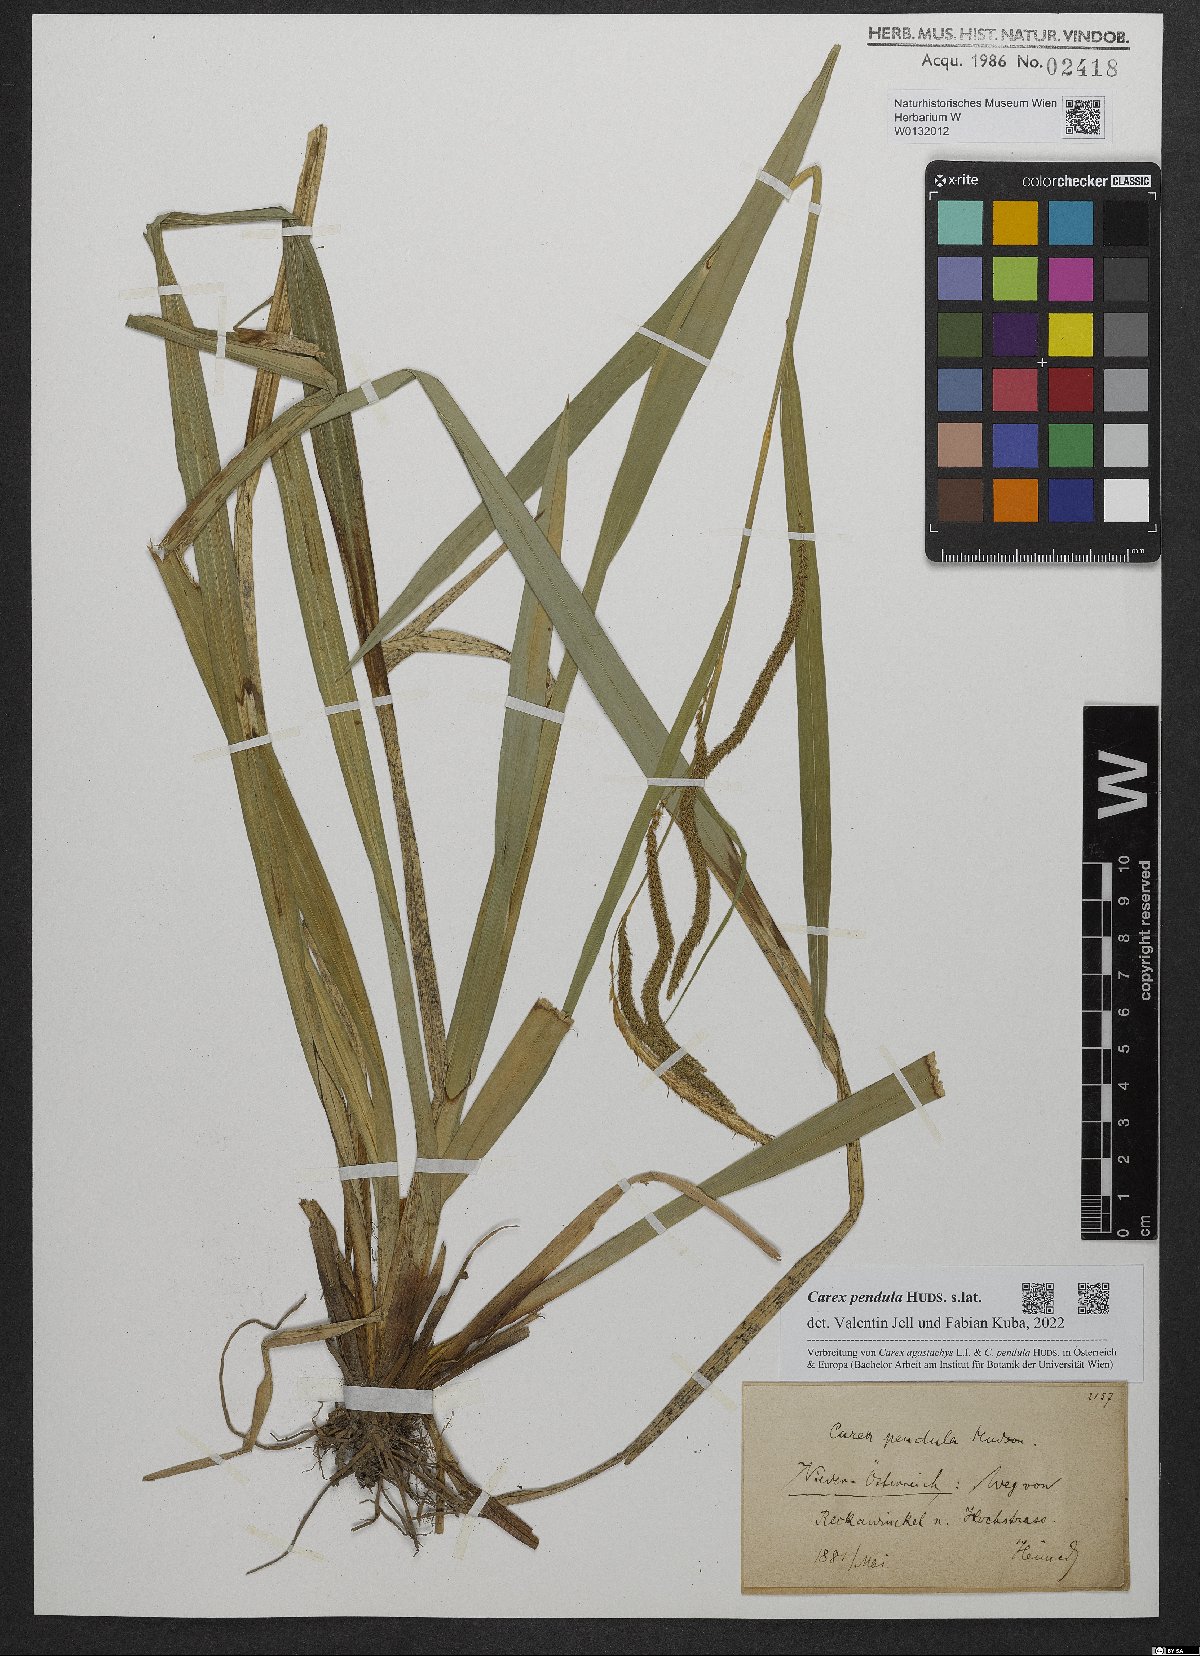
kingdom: Plantae
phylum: Tracheophyta
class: Liliopsida
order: Poales
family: Cyperaceae
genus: Carex
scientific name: Carex pendula
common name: Pendulous sedge
